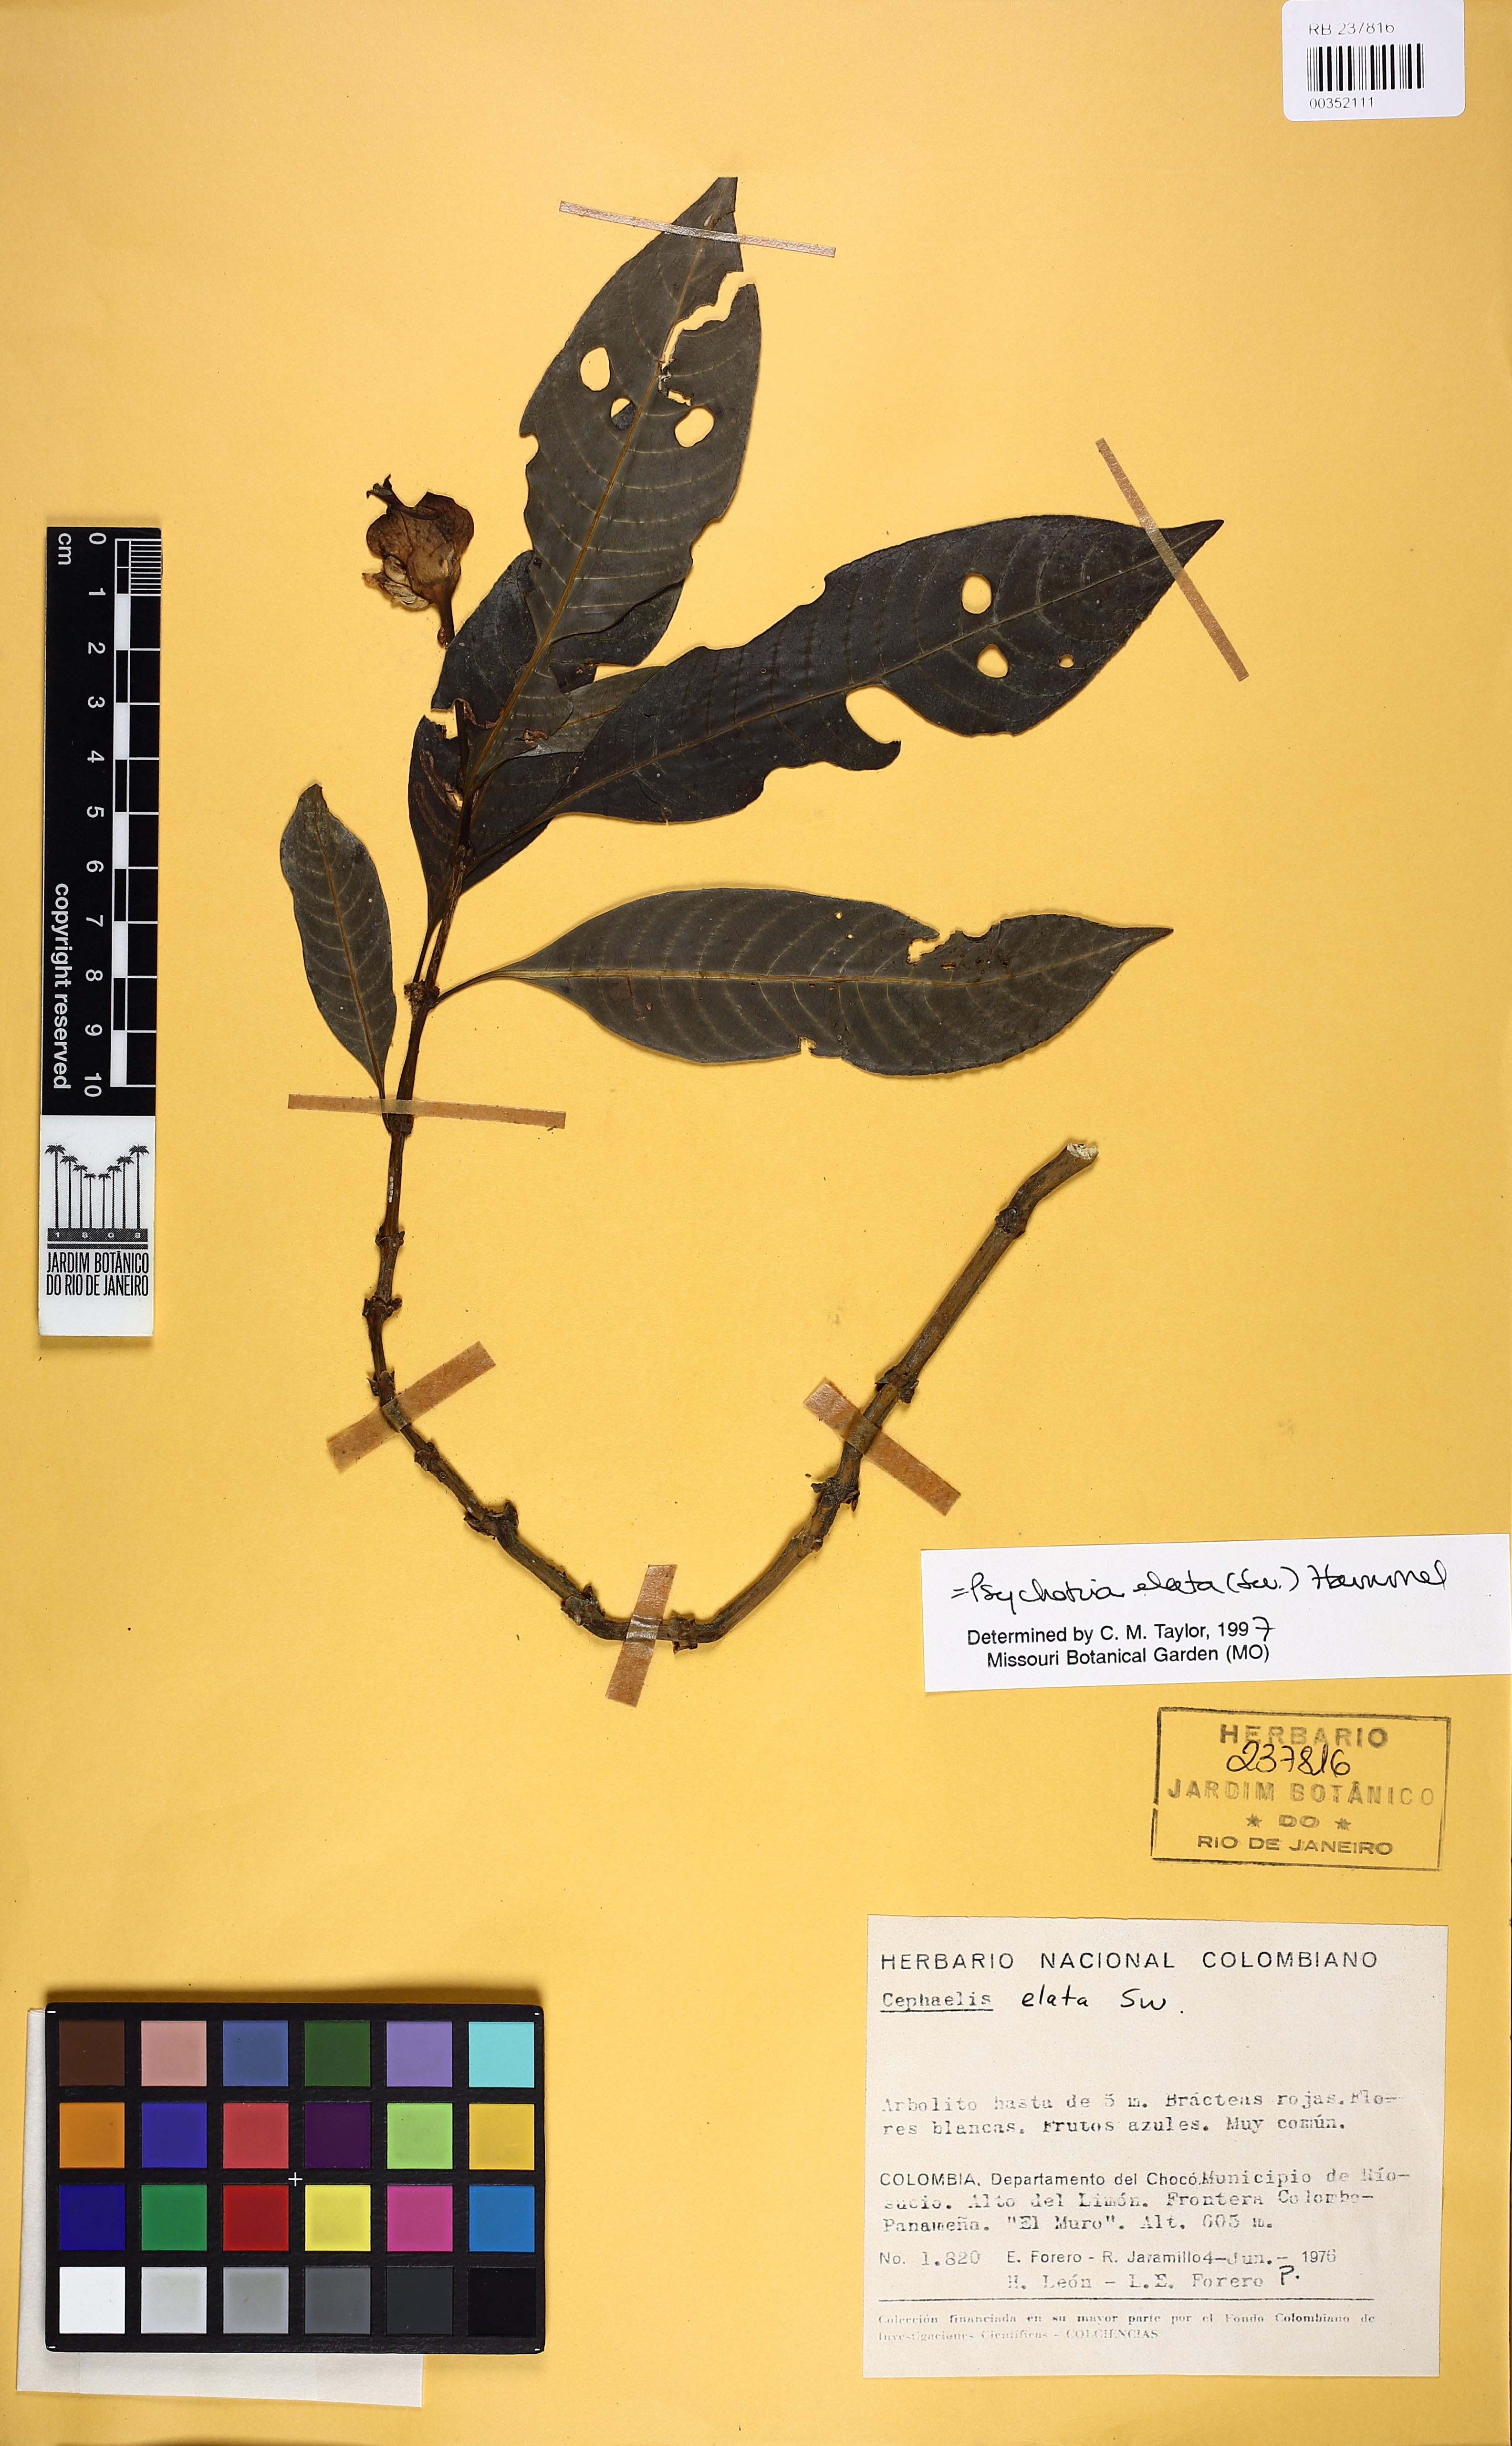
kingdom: Plantae
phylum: Tracheophyta
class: Magnoliopsida
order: Gentianales
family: Rubiaceae
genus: Palicourea
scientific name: Palicourea elata
